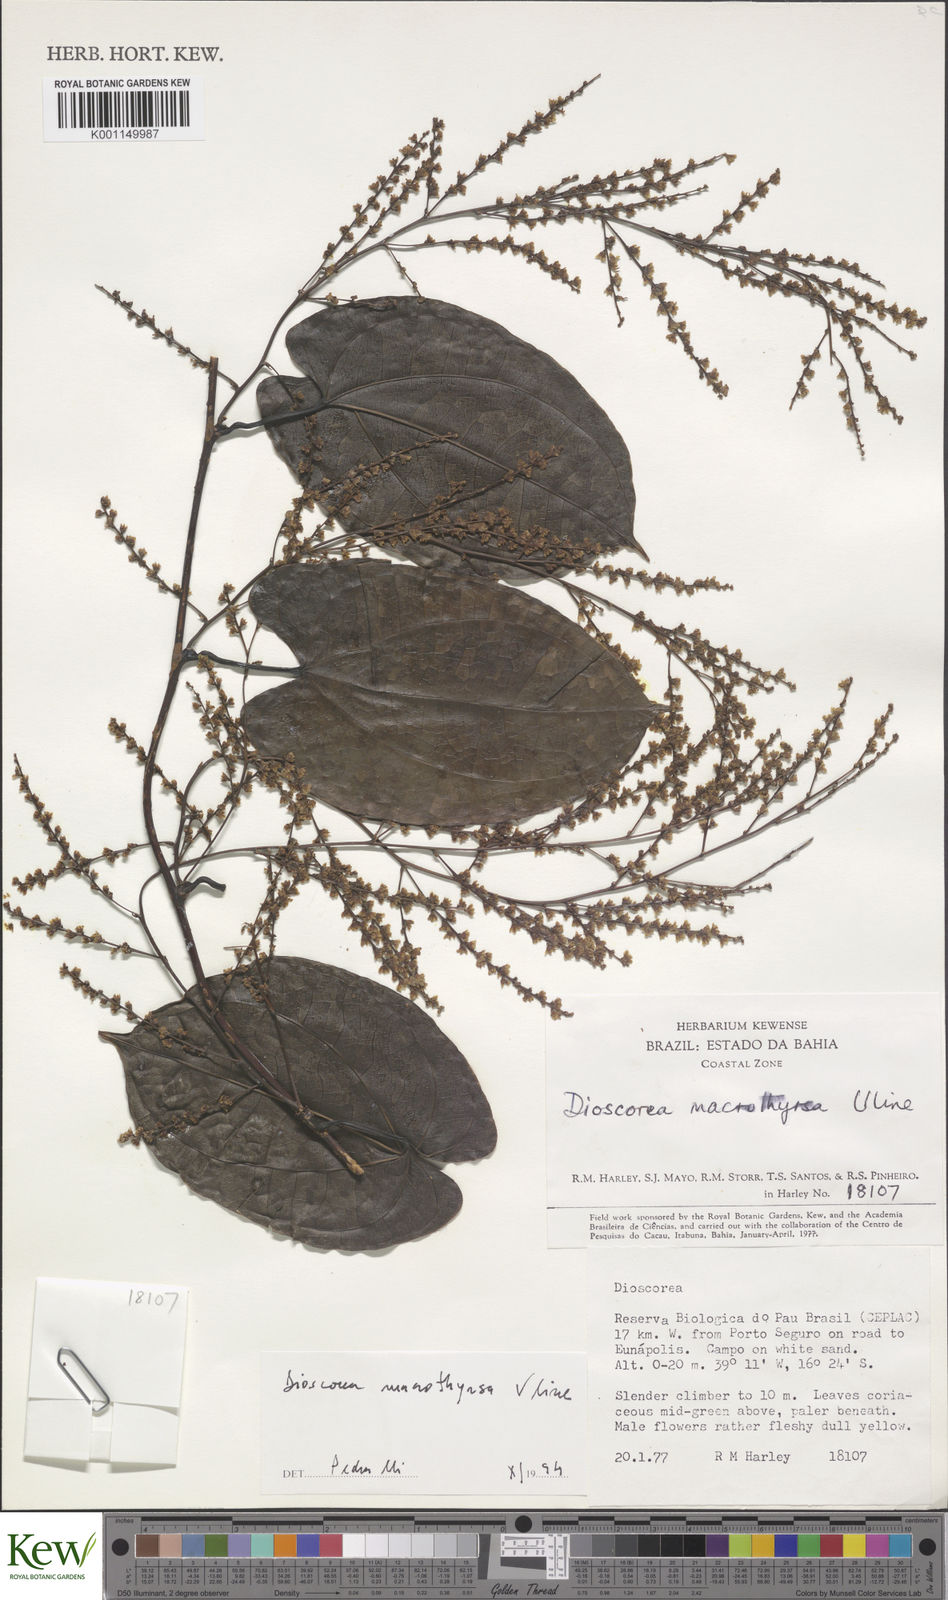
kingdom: Plantae
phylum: Tracheophyta
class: Liliopsida
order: Dioscoreales
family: Dioscoreaceae
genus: Dioscorea
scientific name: Dioscorea macrothyrsa
